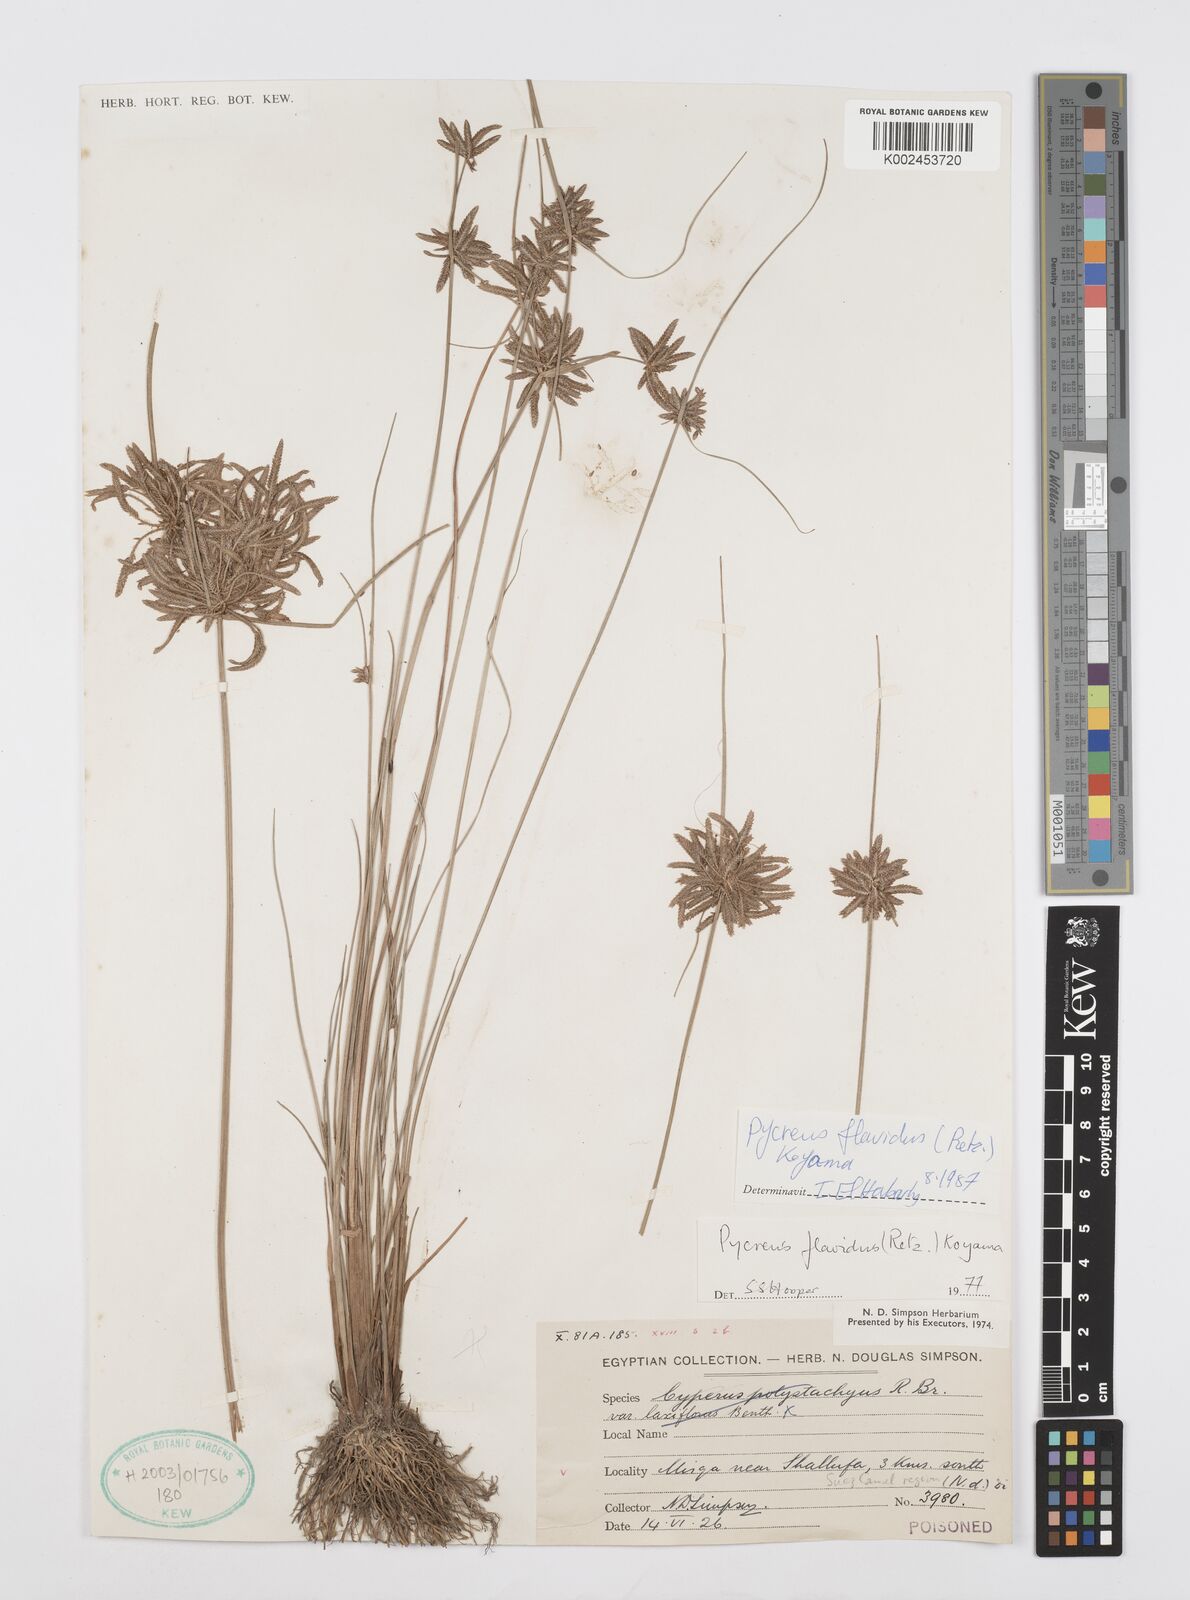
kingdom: Plantae
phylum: Tracheophyta
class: Liliopsida
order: Poales
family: Cyperaceae
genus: Cyperus
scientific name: Cyperus flavidus
